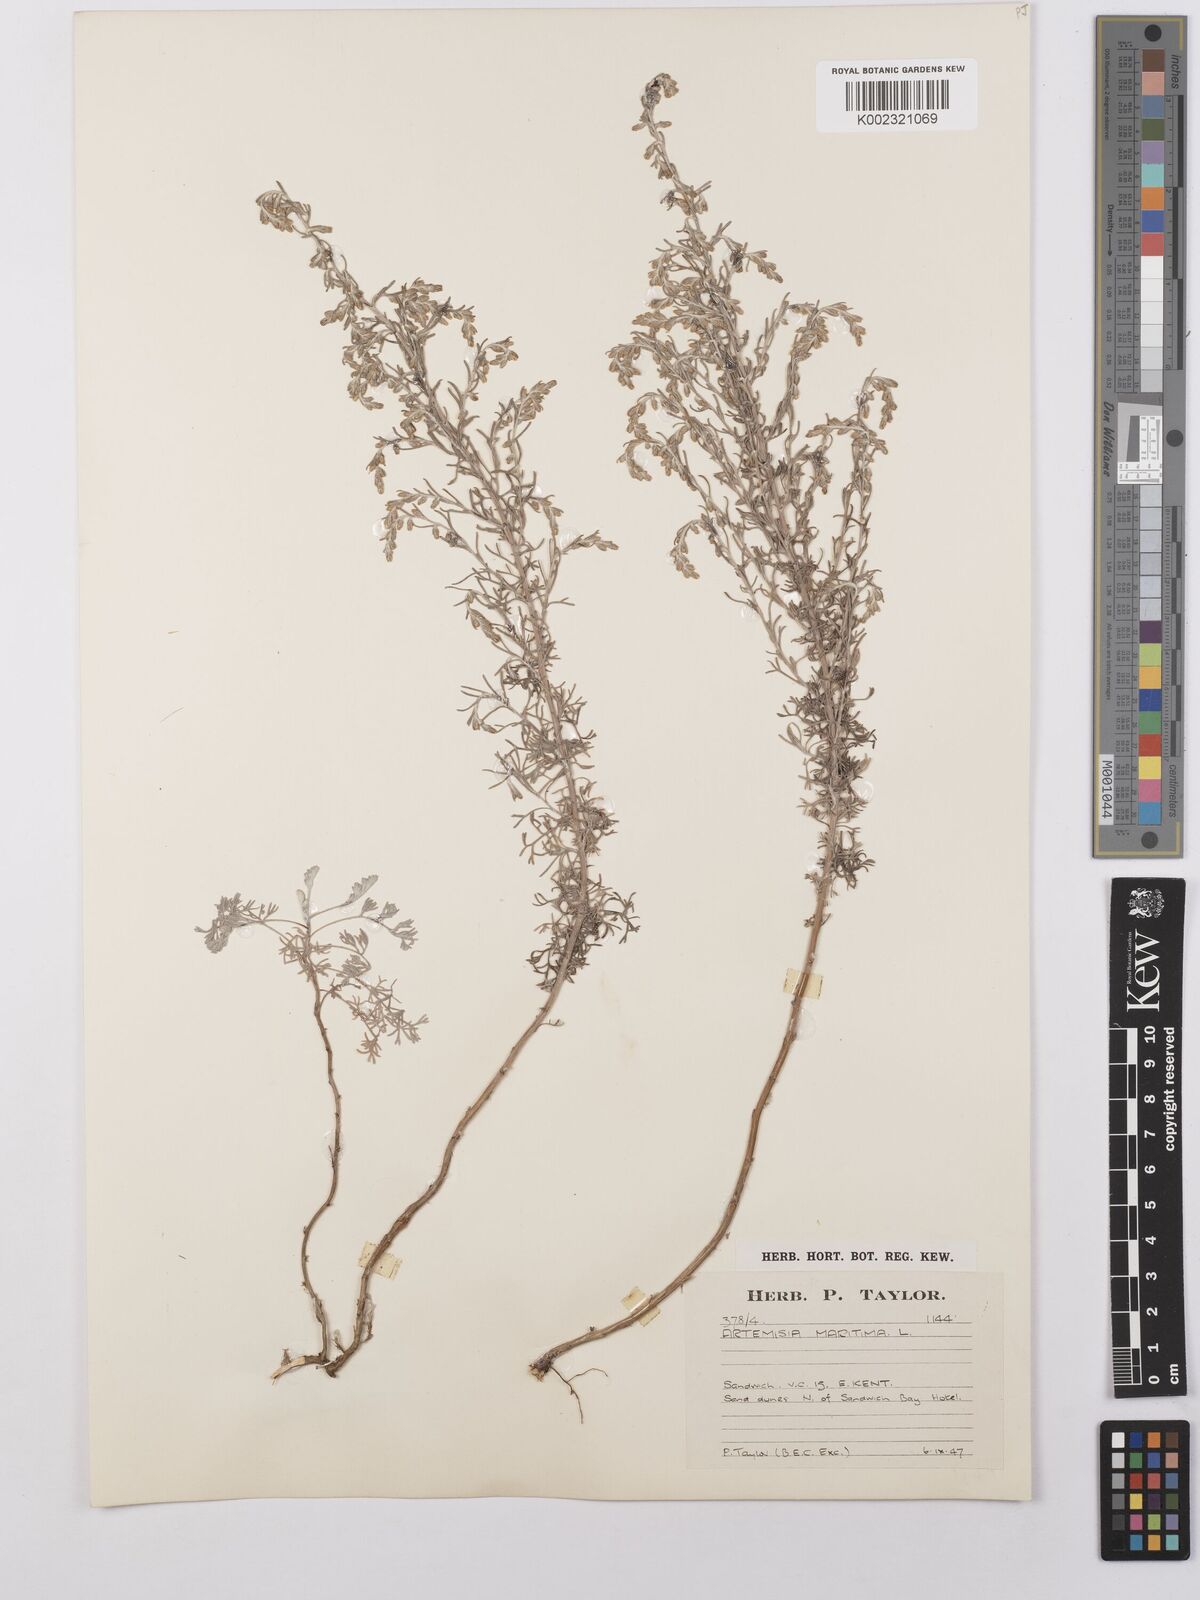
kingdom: Plantae
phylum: Tracheophyta
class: Magnoliopsida
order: Asterales
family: Asteraceae
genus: Artemisia
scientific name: Artemisia maritima
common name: Wormseed
